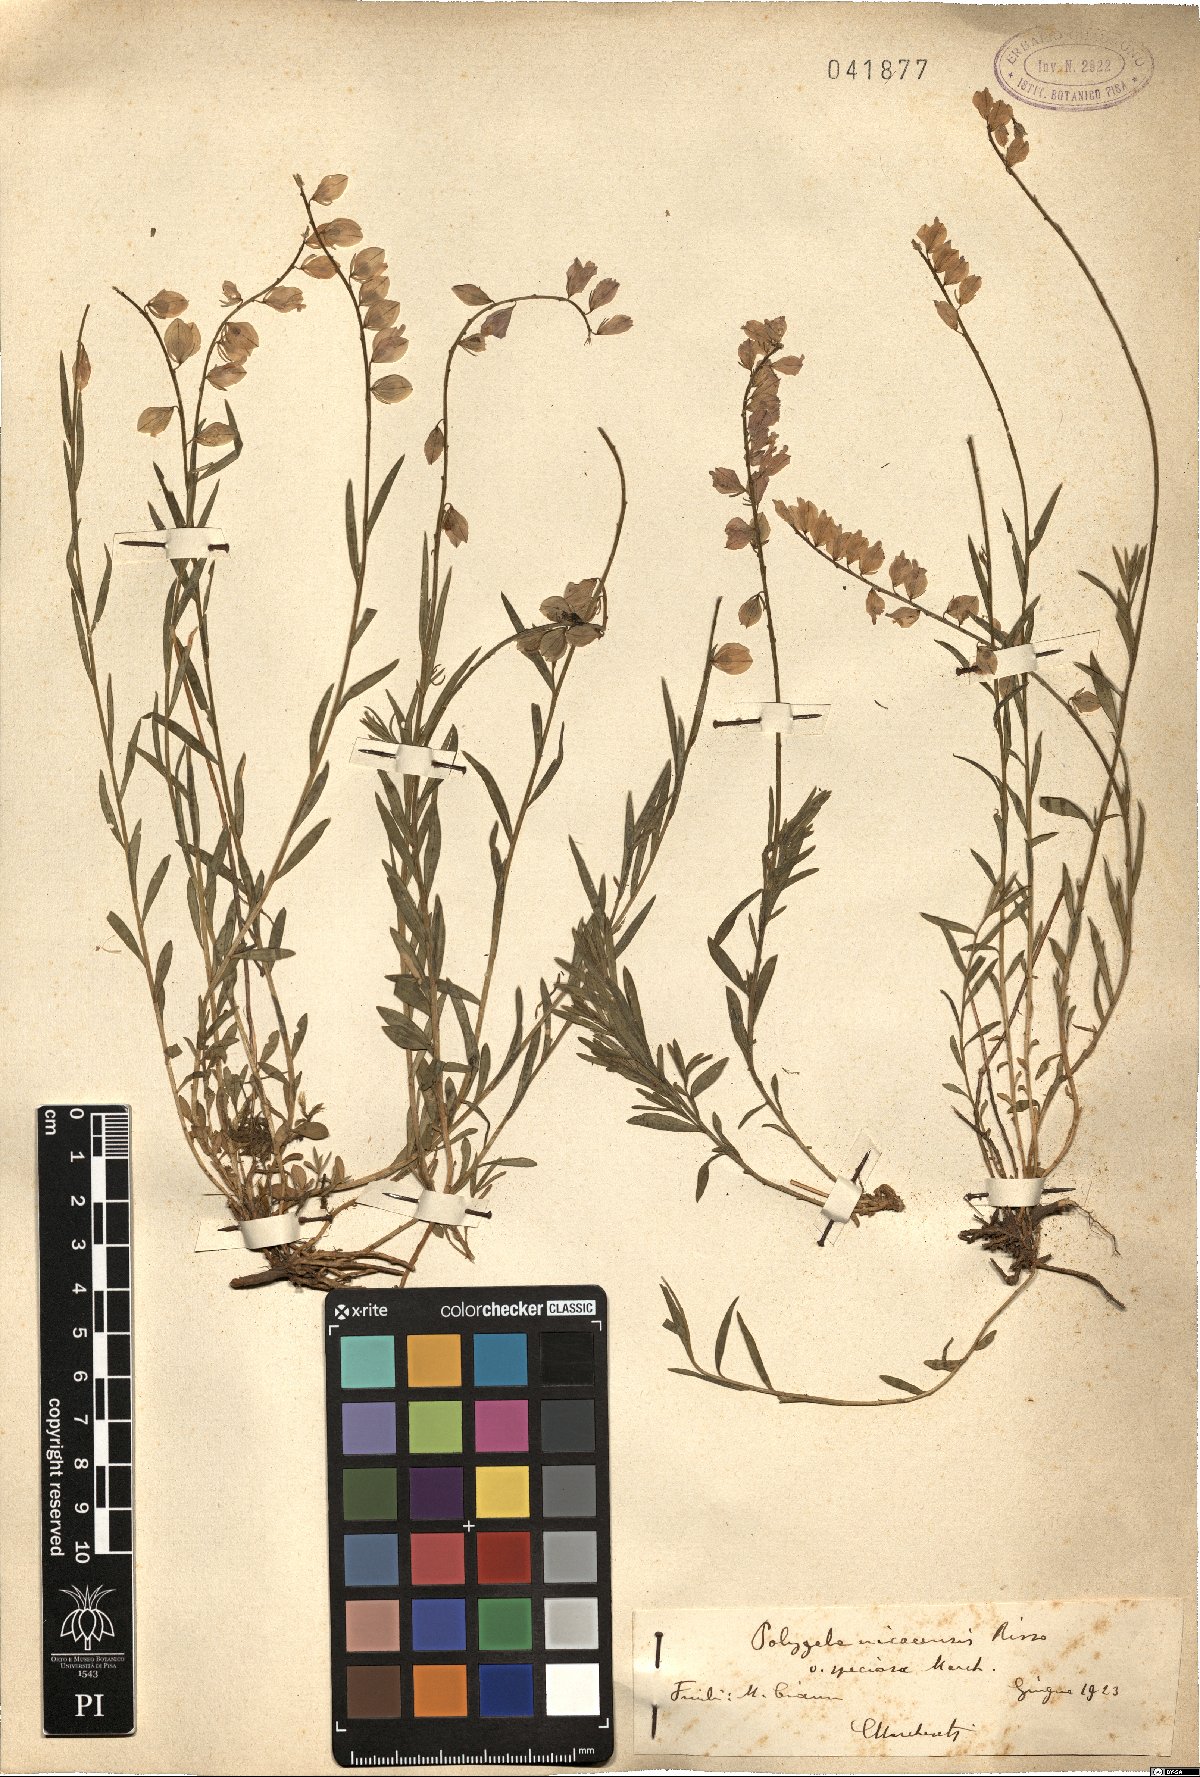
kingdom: Plantae
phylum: Tracheophyta
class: Magnoliopsida
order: Fabales
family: Polygalaceae
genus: Polygala
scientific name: Polygala forojulensis
